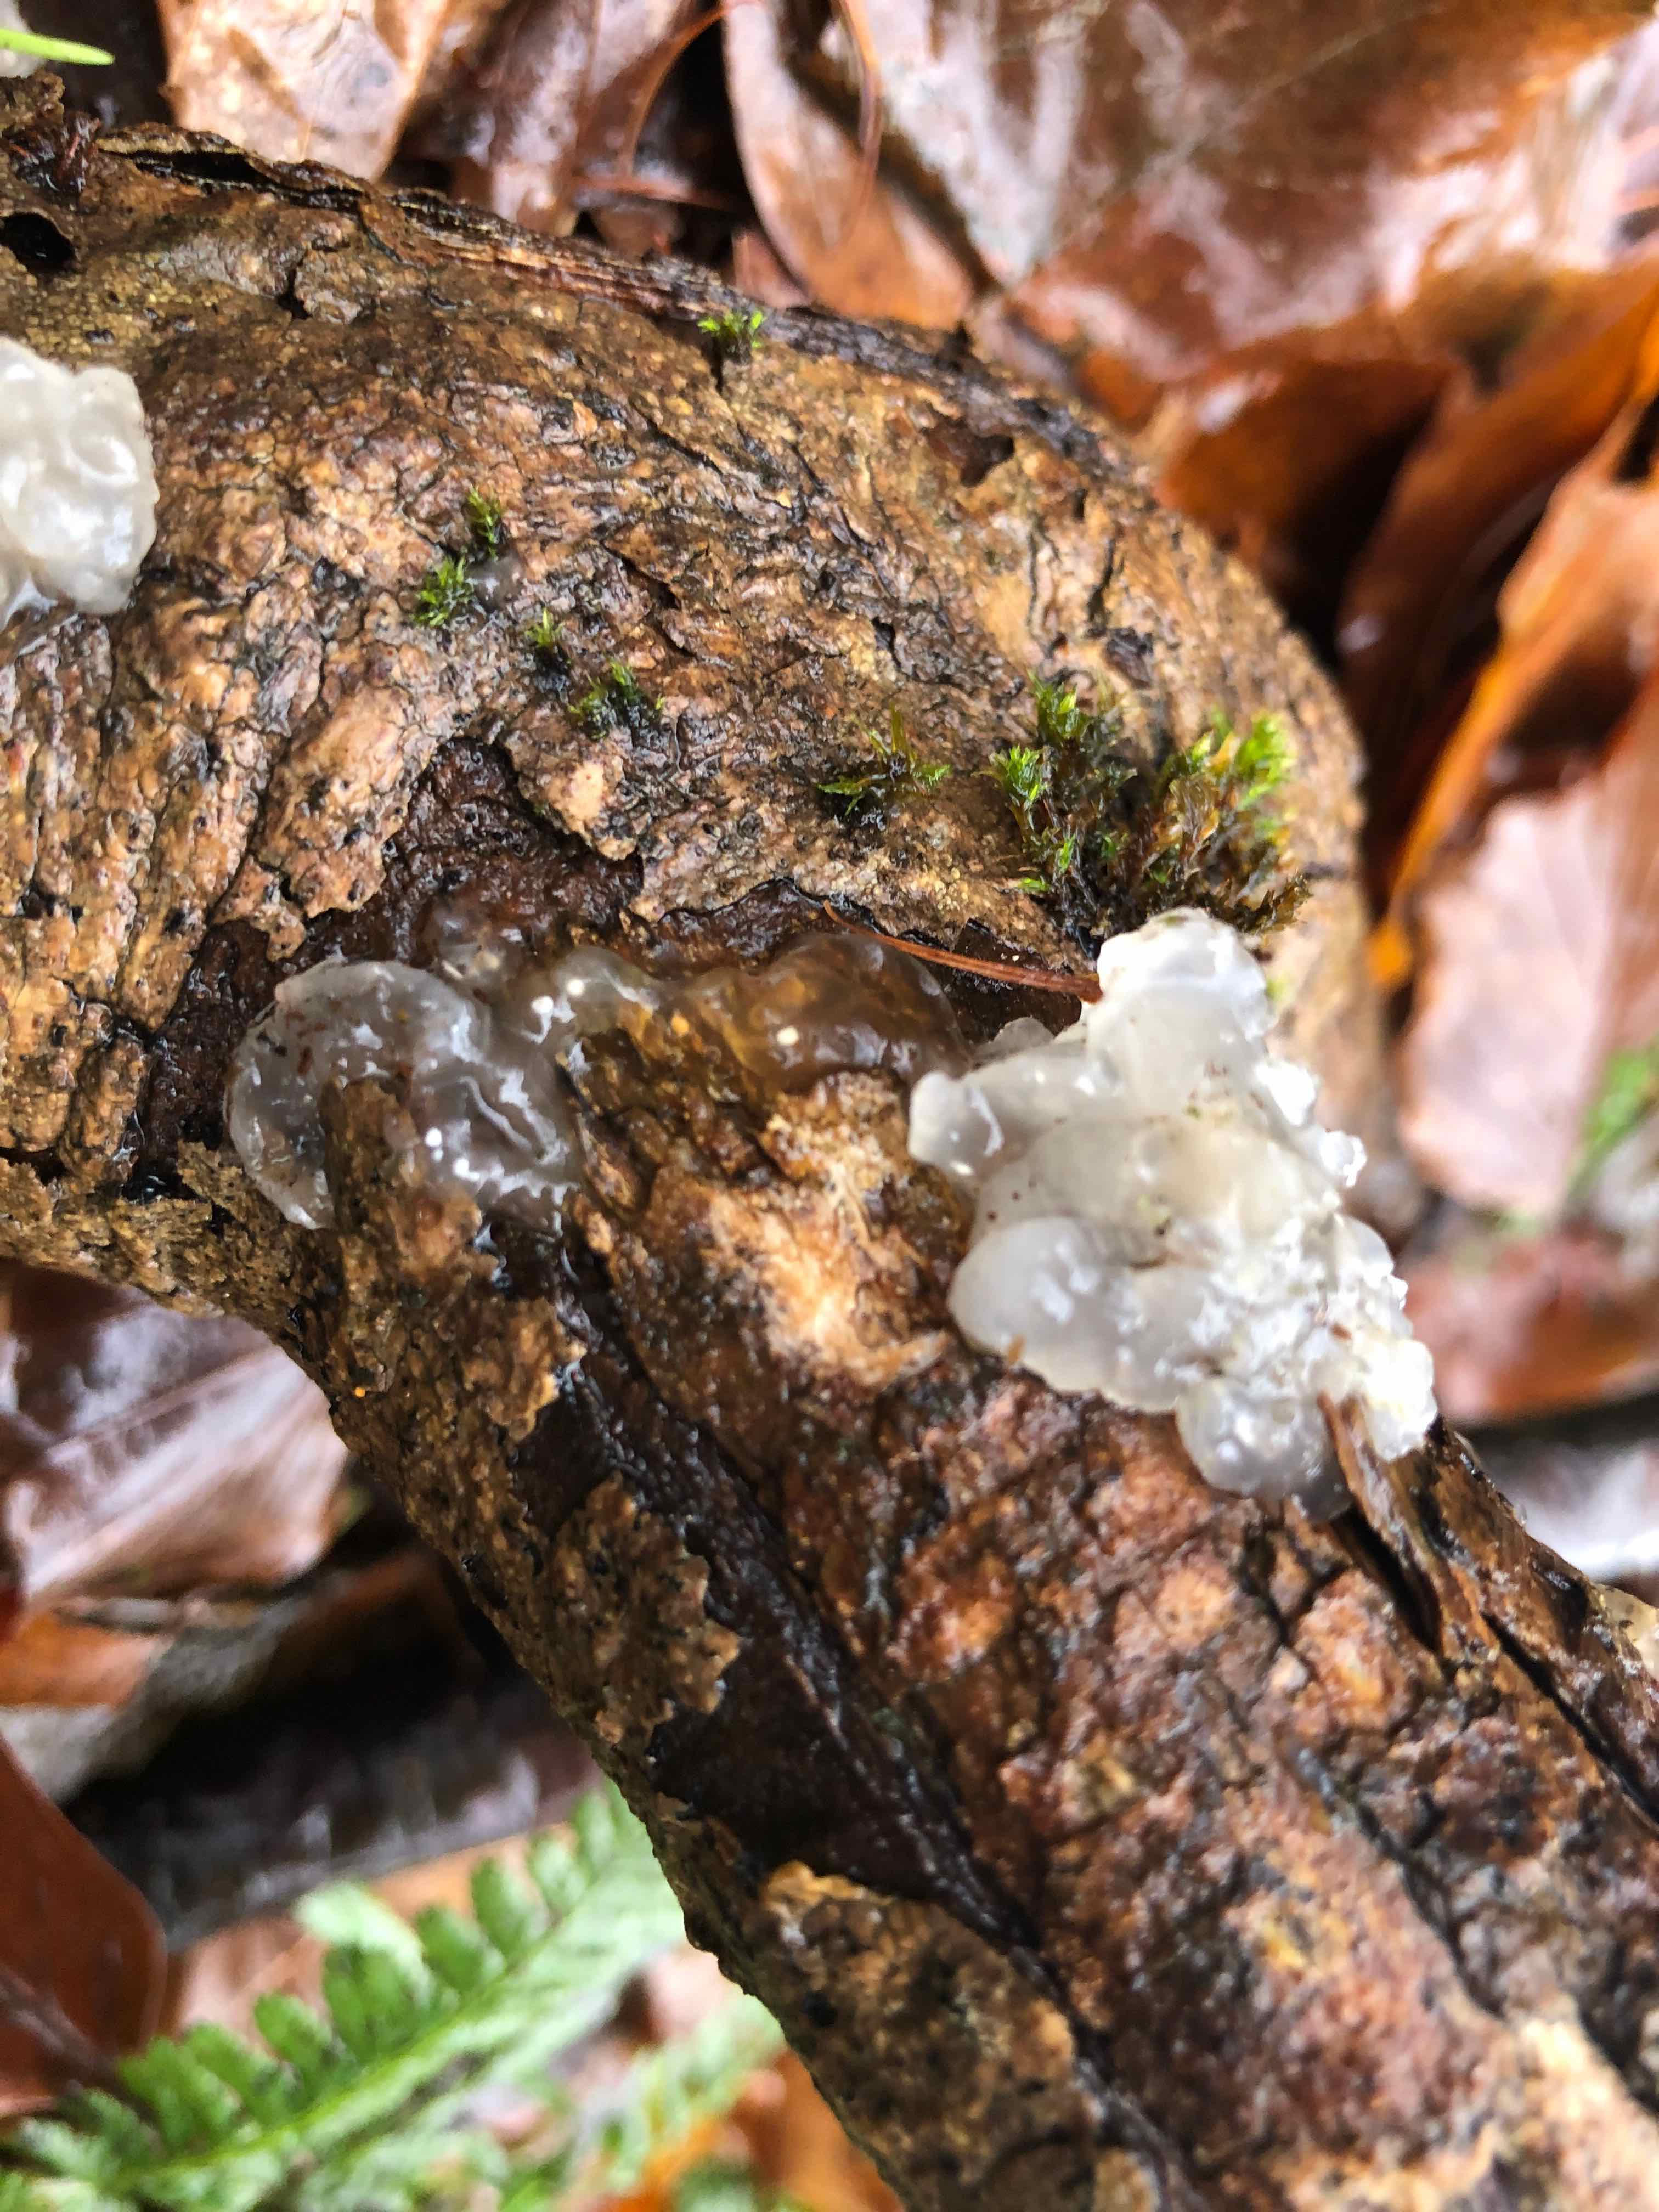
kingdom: Fungi
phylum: Basidiomycota
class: Agaricomycetes
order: Auriculariales
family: Hyaloriaceae
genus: Myxarium
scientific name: Myxarium nucleatum
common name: klar bævretop
